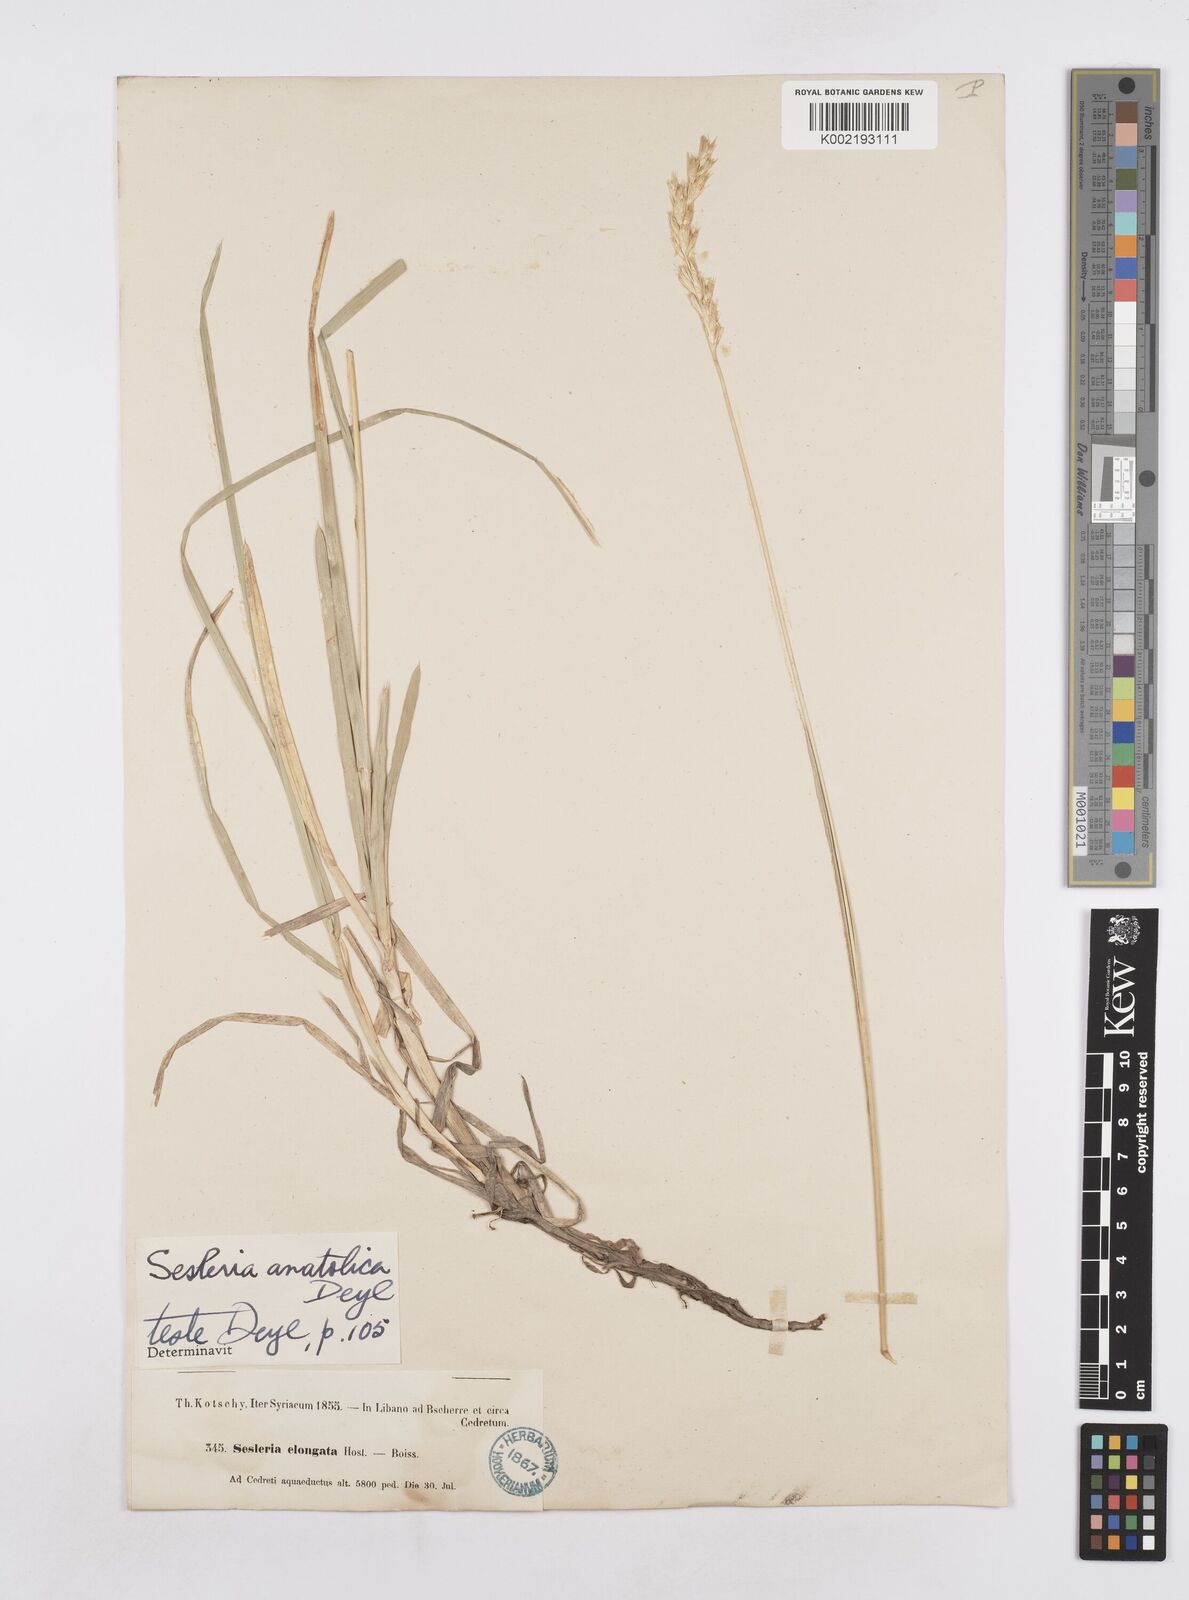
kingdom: Plantae
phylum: Tracheophyta
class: Liliopsida
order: Poales
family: Poaceae
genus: Sesleria
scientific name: Sesleria alba
